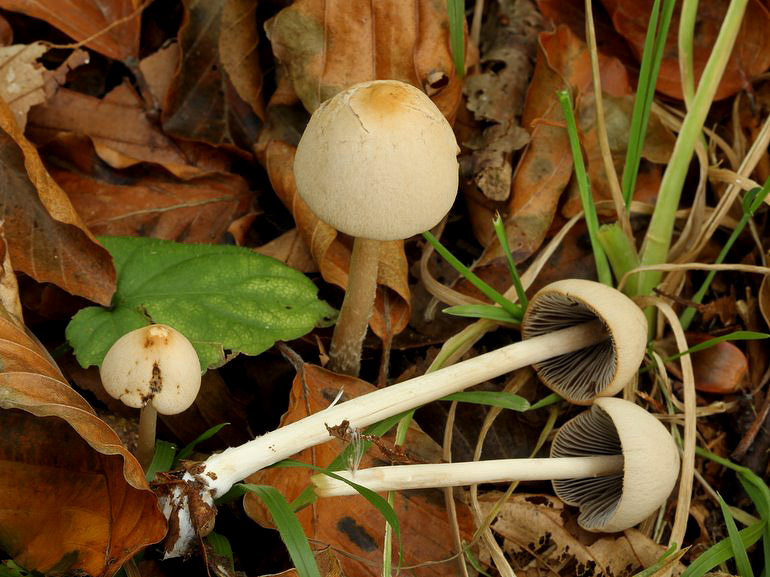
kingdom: Fungi
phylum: Basidiomycota
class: Agaricomycetes
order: Agaricales
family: Psathyrellaceae
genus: Parasola
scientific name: Parasola conopilea
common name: kegle-hjulhat
